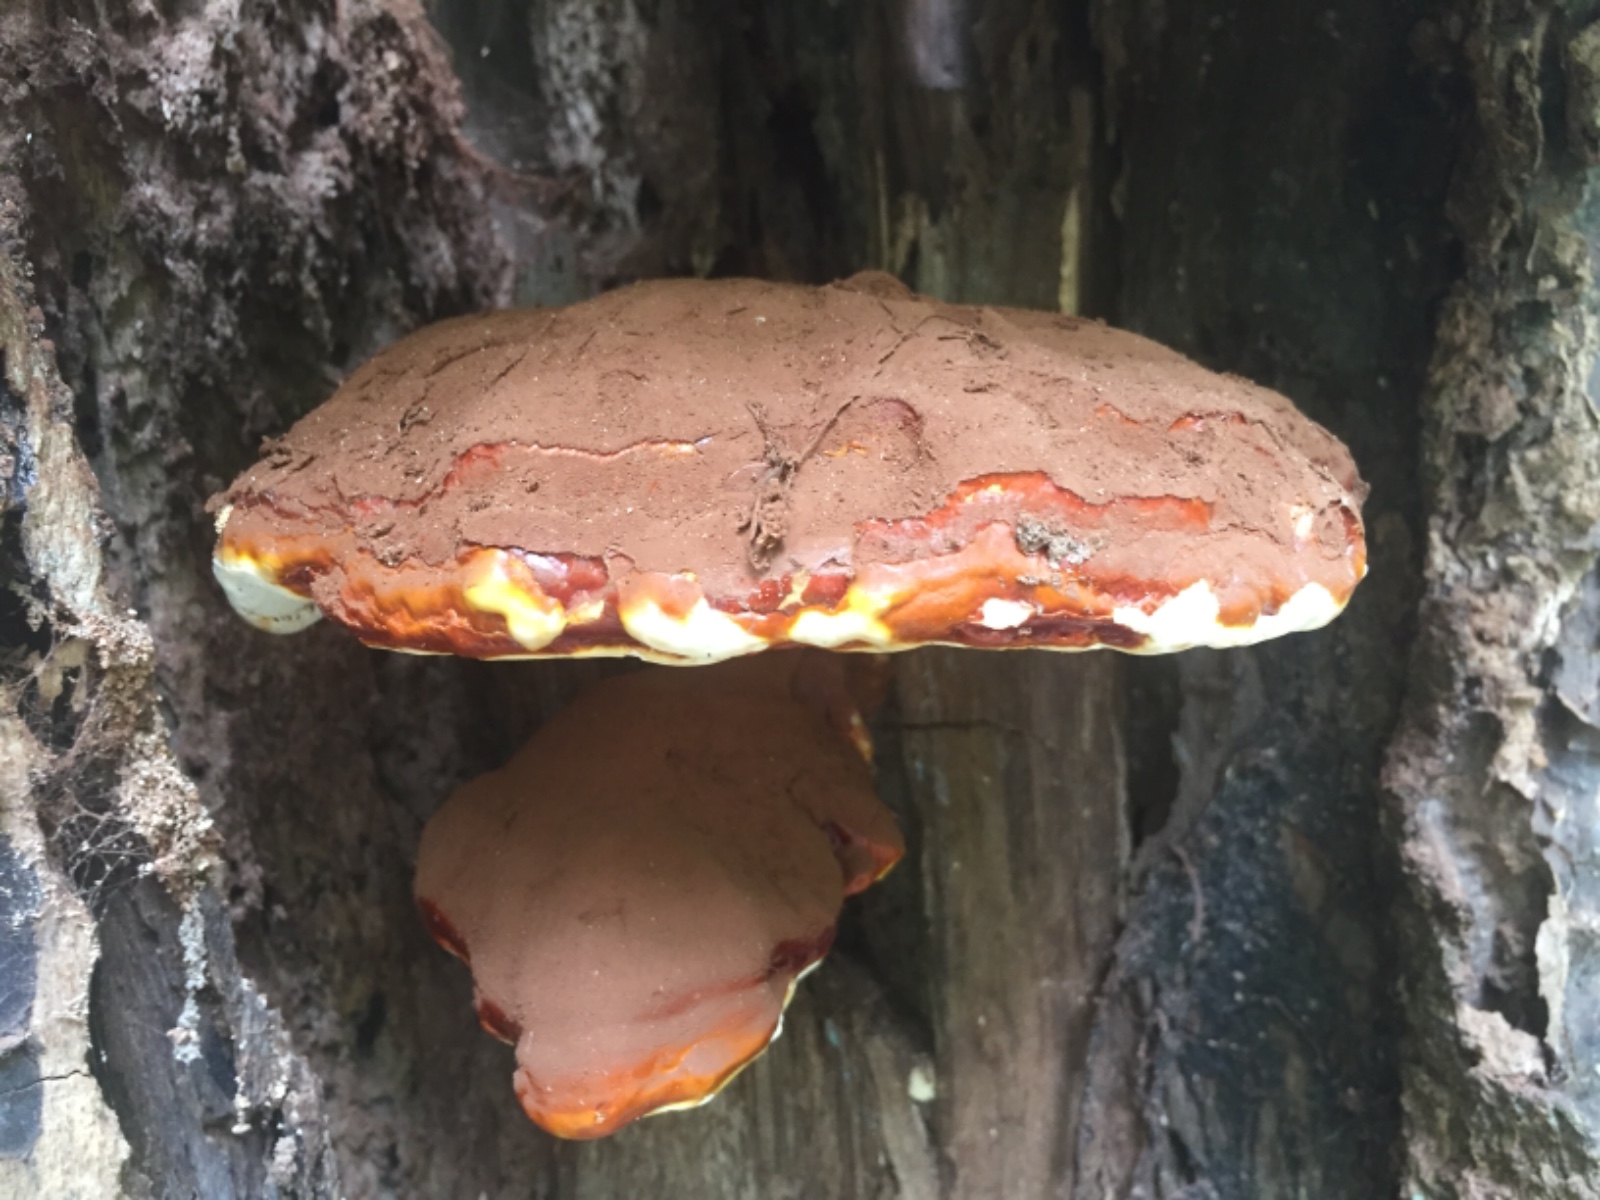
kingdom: Fungi
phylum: Basidiomycota
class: Agaricomycetes
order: Polyporales
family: Polyporaceae
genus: Ganoderma
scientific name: Ganoderma resinaceum
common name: gyldenbrun lakporesvamp
